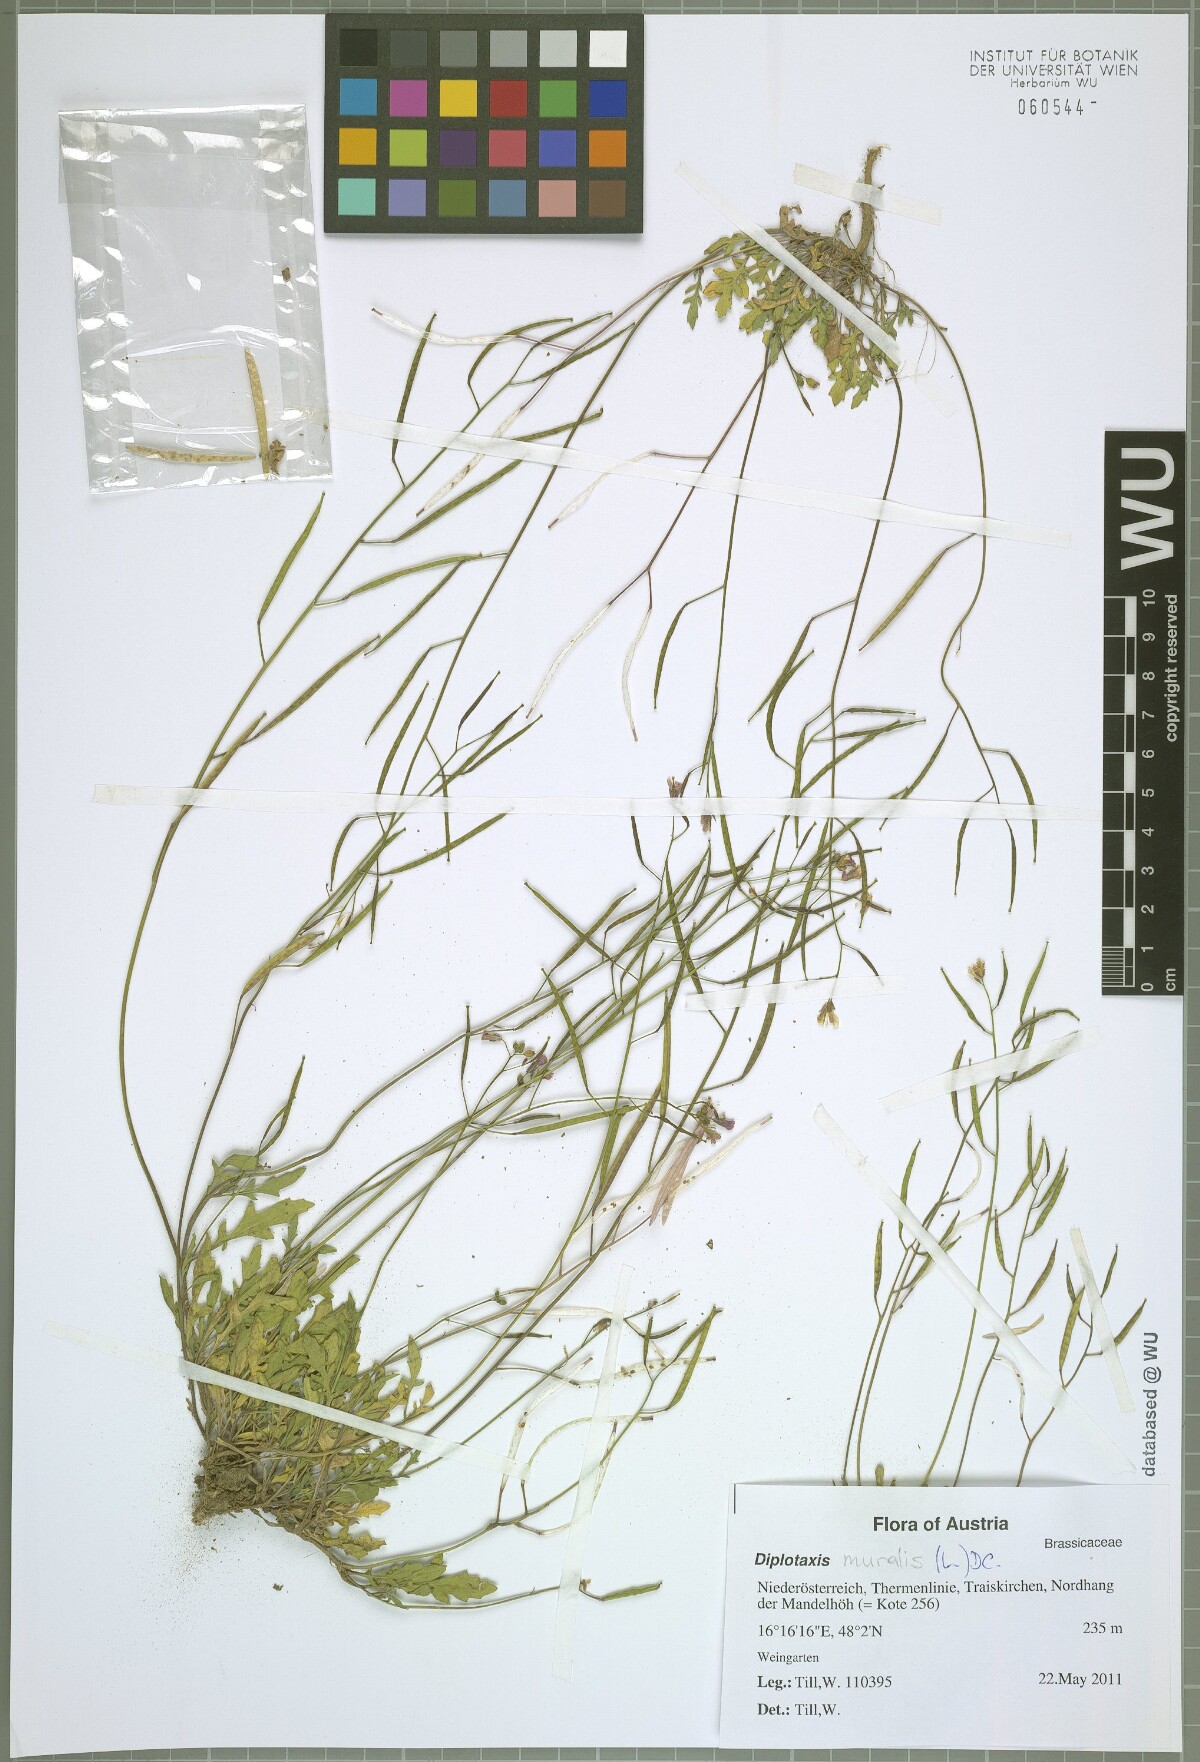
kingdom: Plantae
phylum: Tracheophyta
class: Magnoliopsida
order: Brassicales
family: Brassicaceae
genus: Diplotaxis
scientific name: Diplotaxis muralis
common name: Annual wall-rocket
